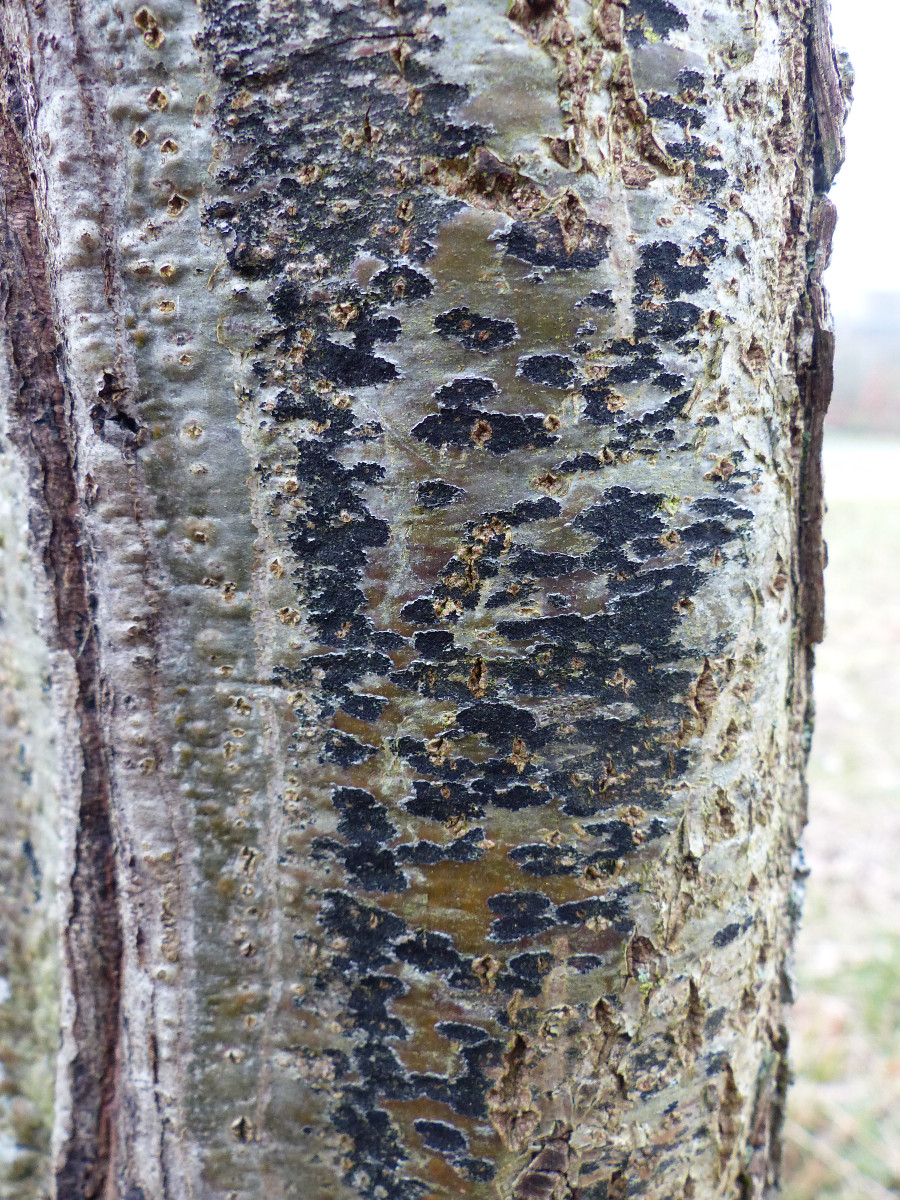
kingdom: Fungi
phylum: Ascomycota
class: Leotiomycetes
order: Rhytismatales
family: Ascodichaenaceae
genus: Ascodichaena
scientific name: Ascodichaena rugosa
